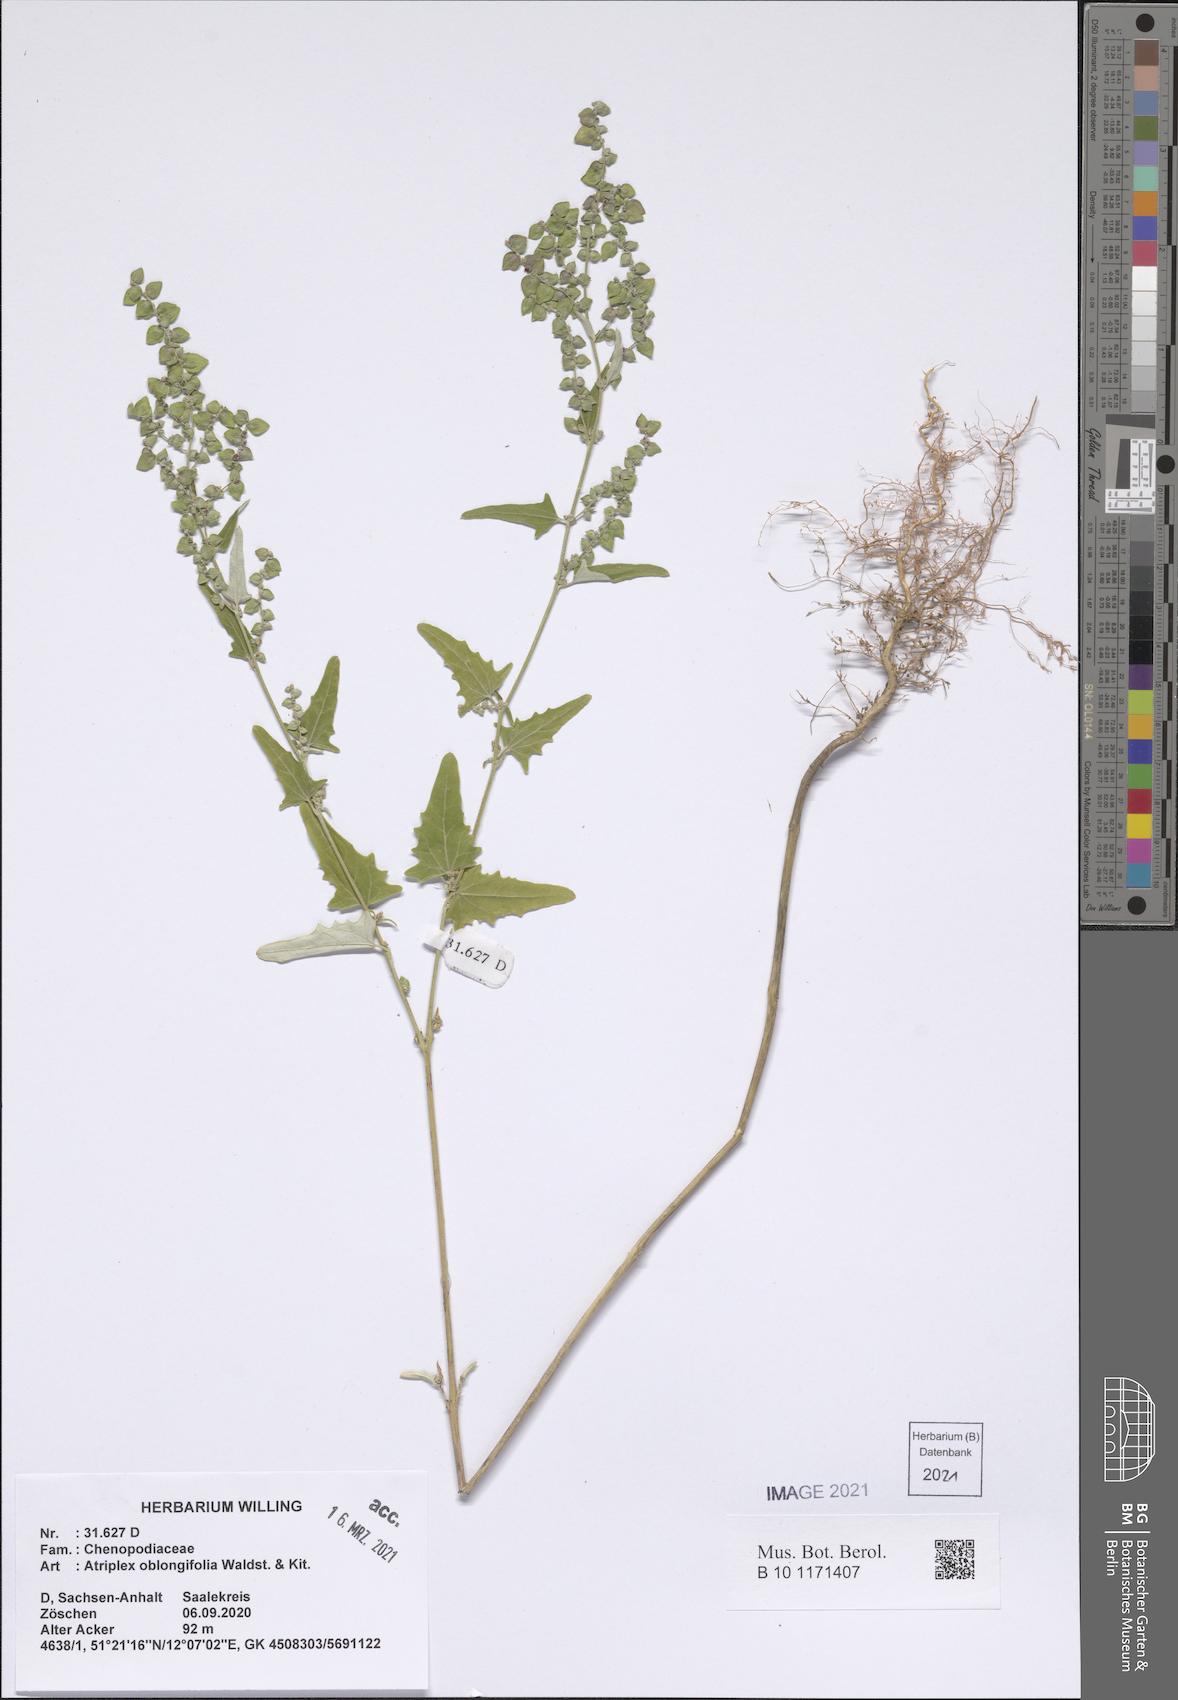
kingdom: Plantae
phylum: Tracheophyta
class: Magnoliopsida
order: Caryophyllales
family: Amaranthaceae
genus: Atriplex
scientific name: Atriplex oblongifolia
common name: Oblongleaf orache
